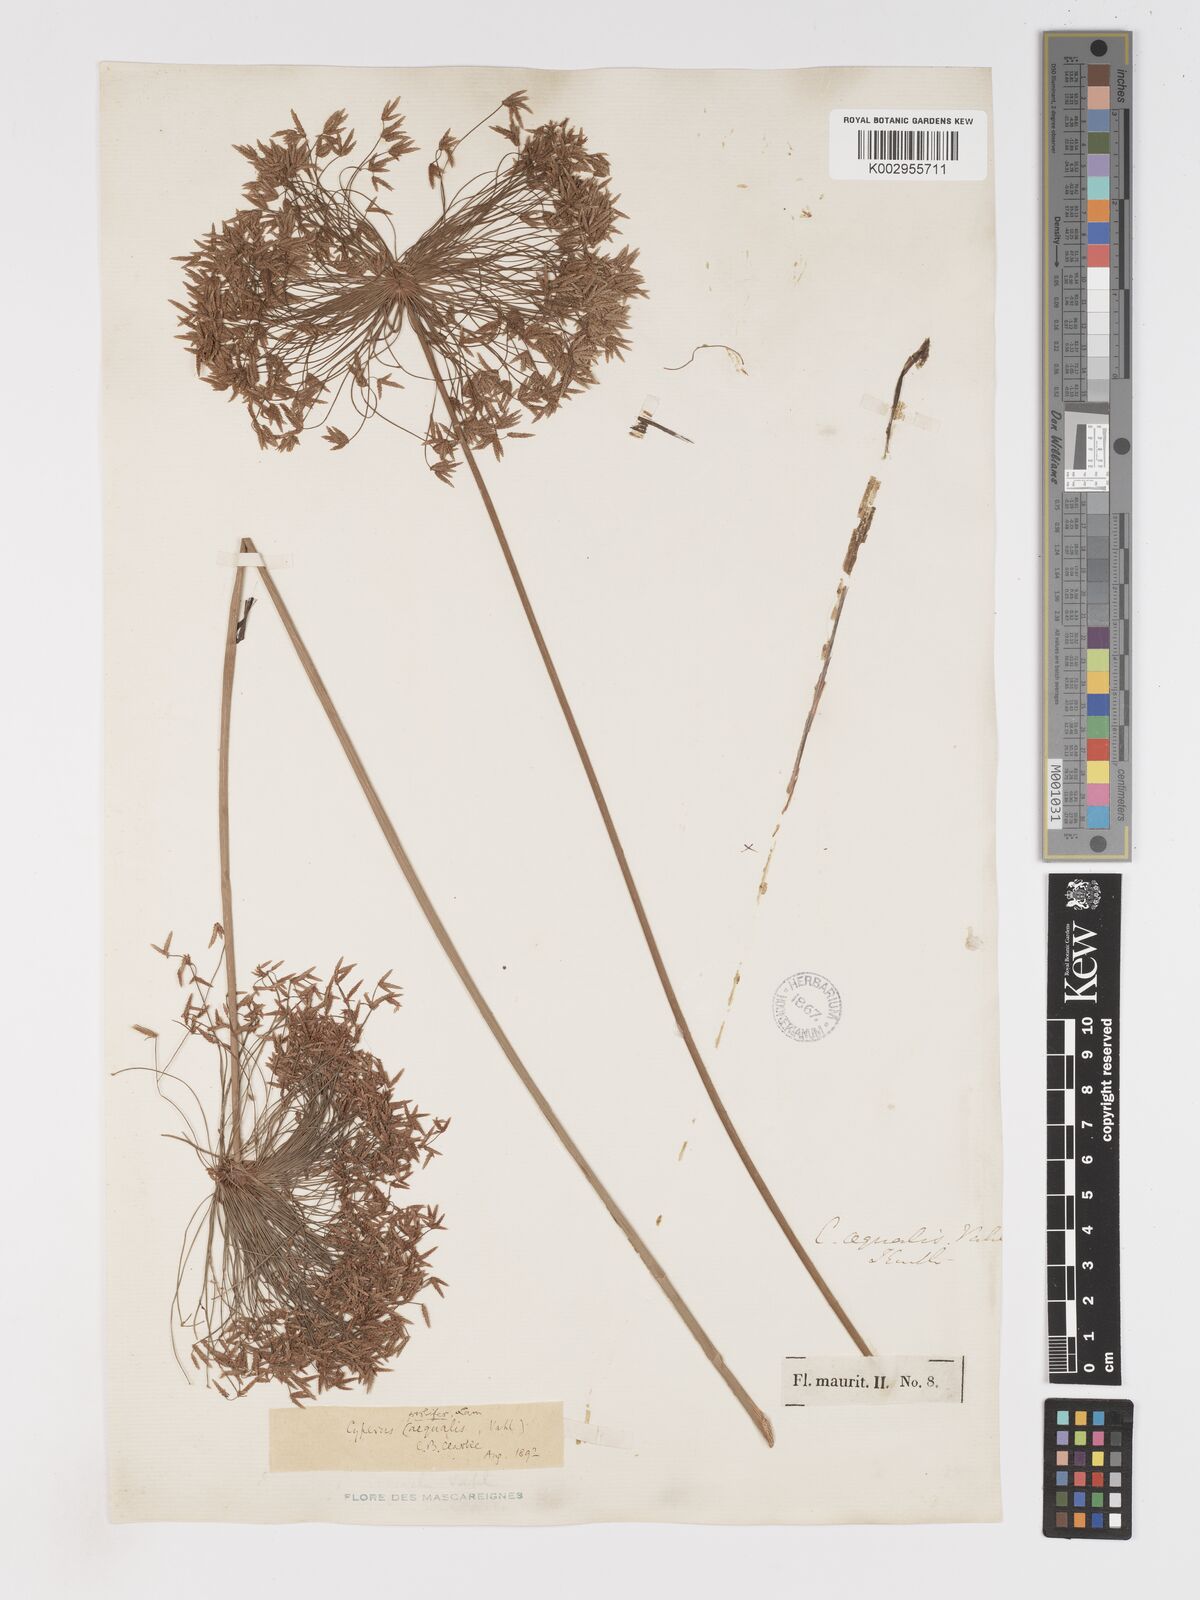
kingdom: Plantae
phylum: Tracheophyta
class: Liliopsida
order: Poales
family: Cyperaceae
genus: Cyperus
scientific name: Cyperus prolifer
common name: Miniature flatsedge
